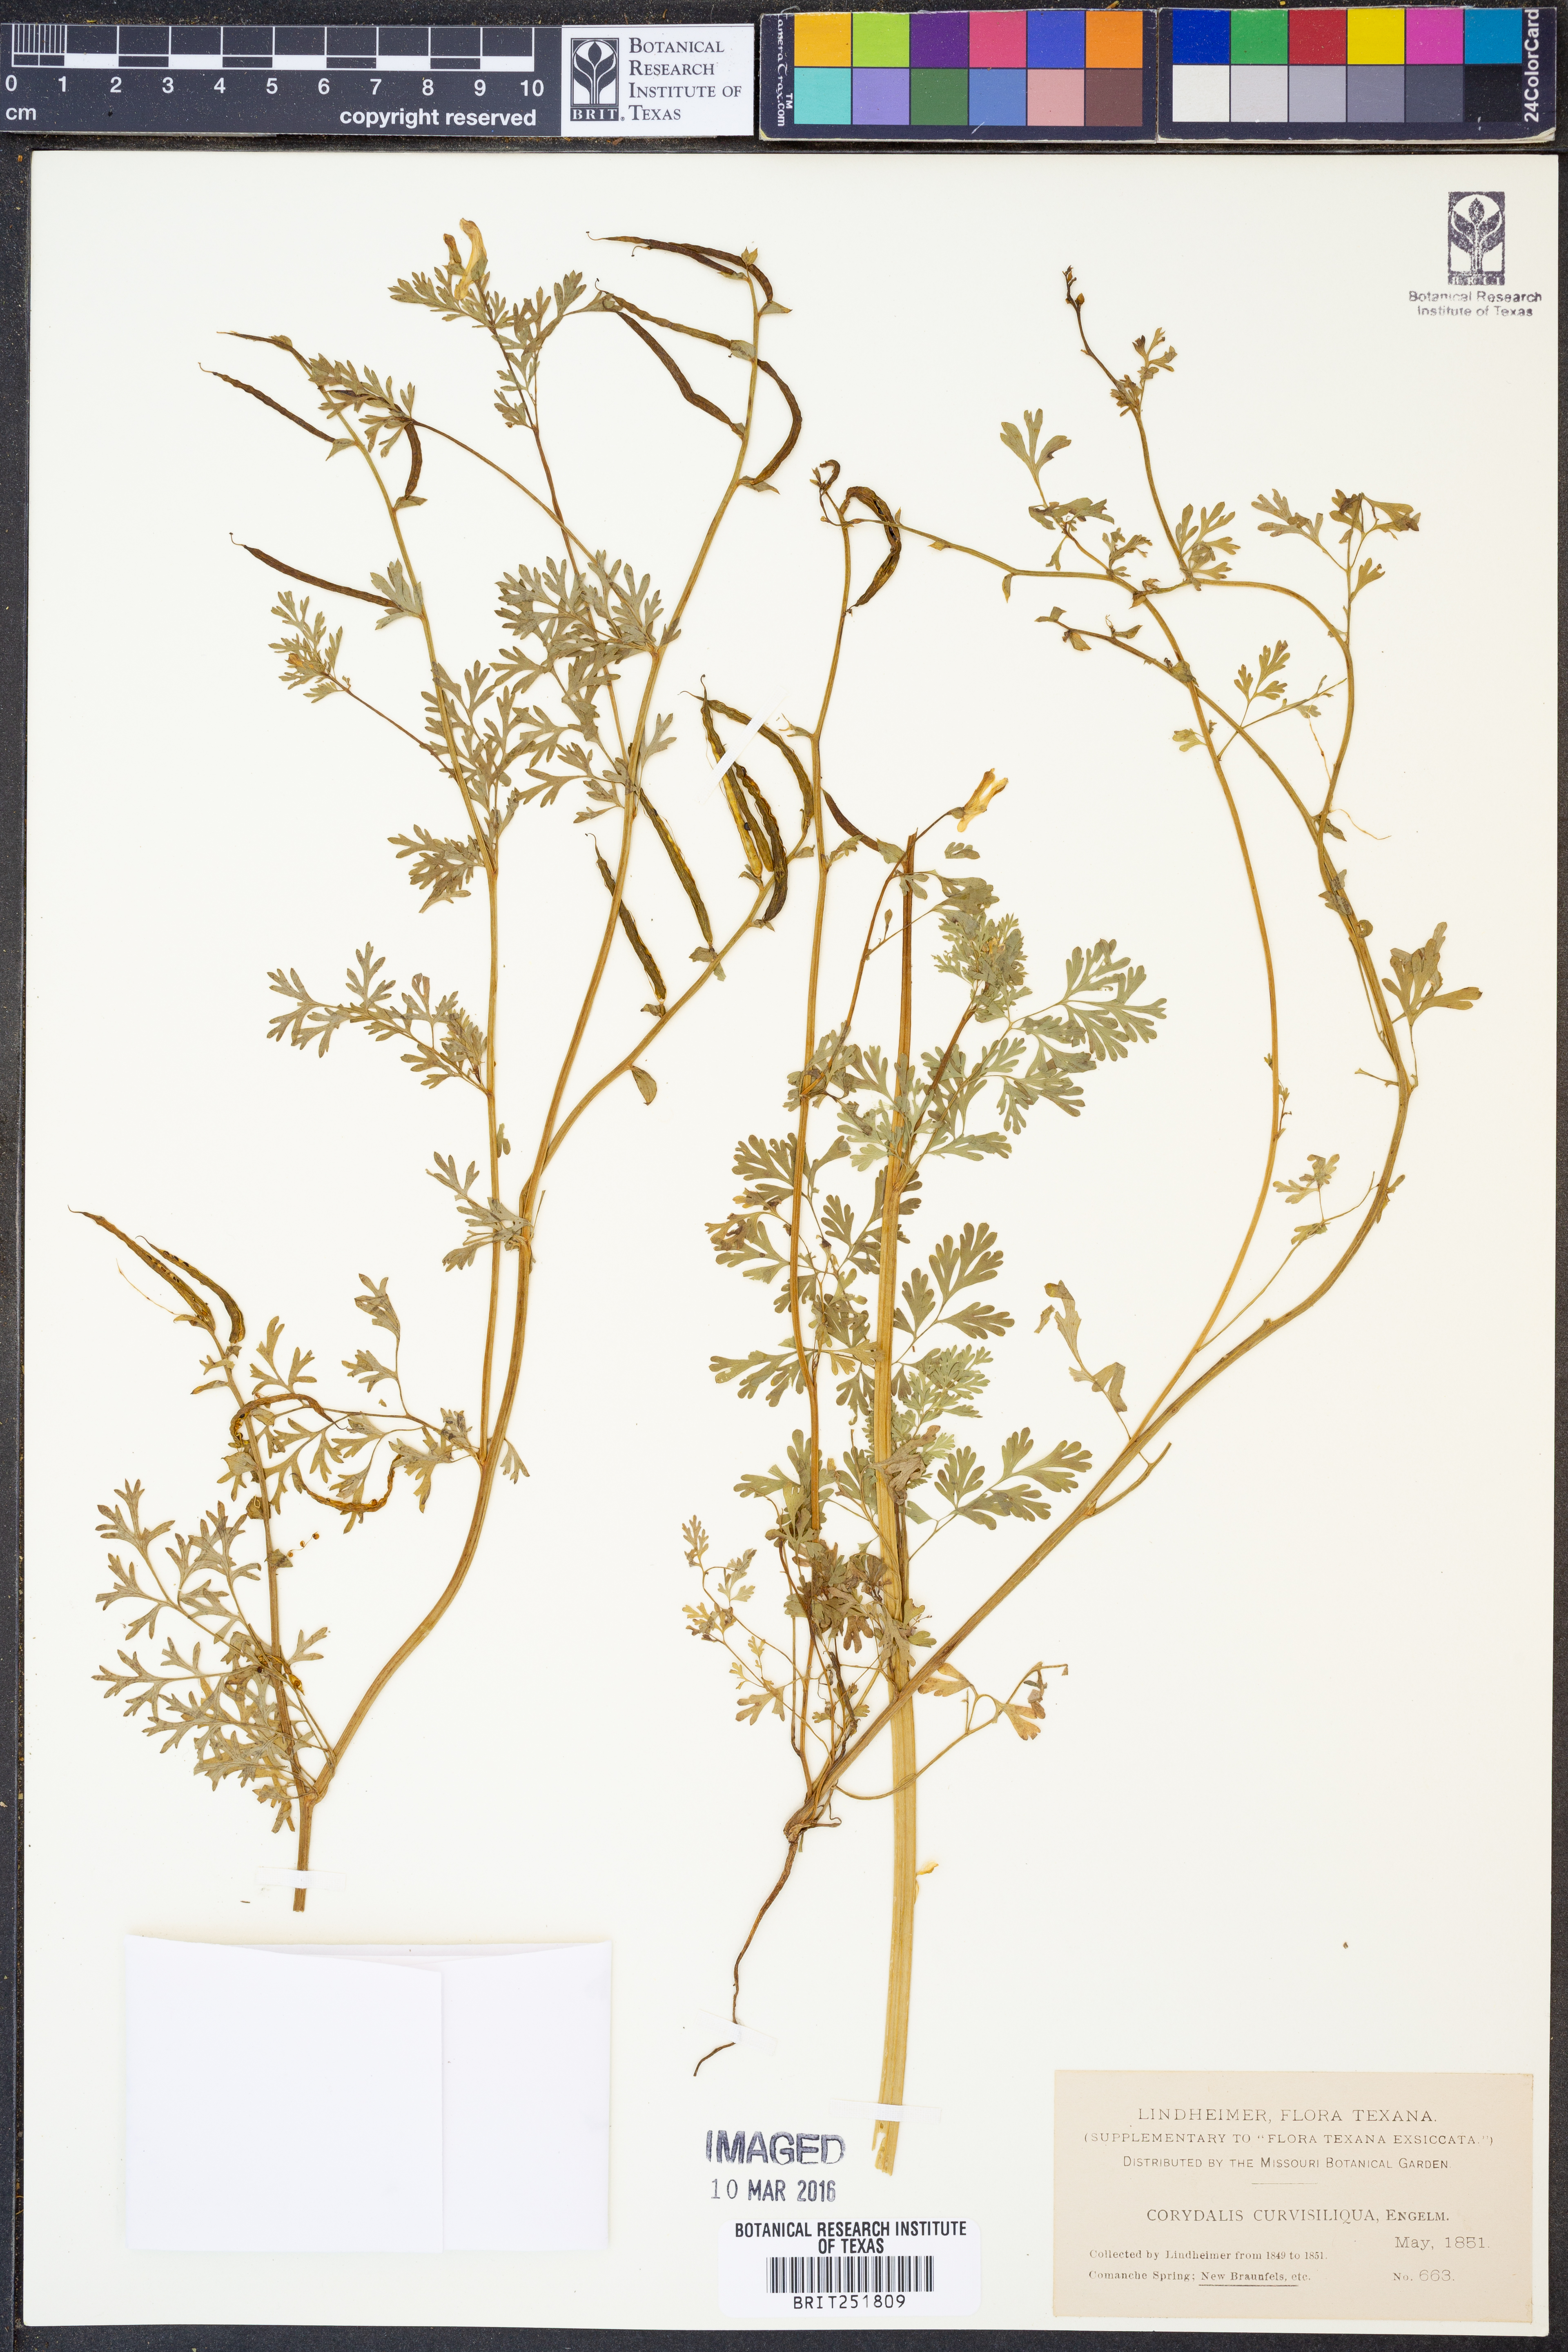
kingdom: Plantae
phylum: Tracheophyta
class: Magnoliopsida
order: Ranunculales
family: Papaveraceae
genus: Corydalis
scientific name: Corydalis curvisiliqua
